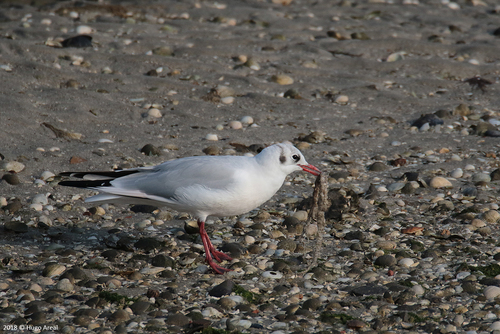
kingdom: Animalia
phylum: Chordata
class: Aves
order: Charadriiformes
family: Laridae
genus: Chroicocephalus
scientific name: Chroicocephalus ridibundus
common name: Black-headed gull
